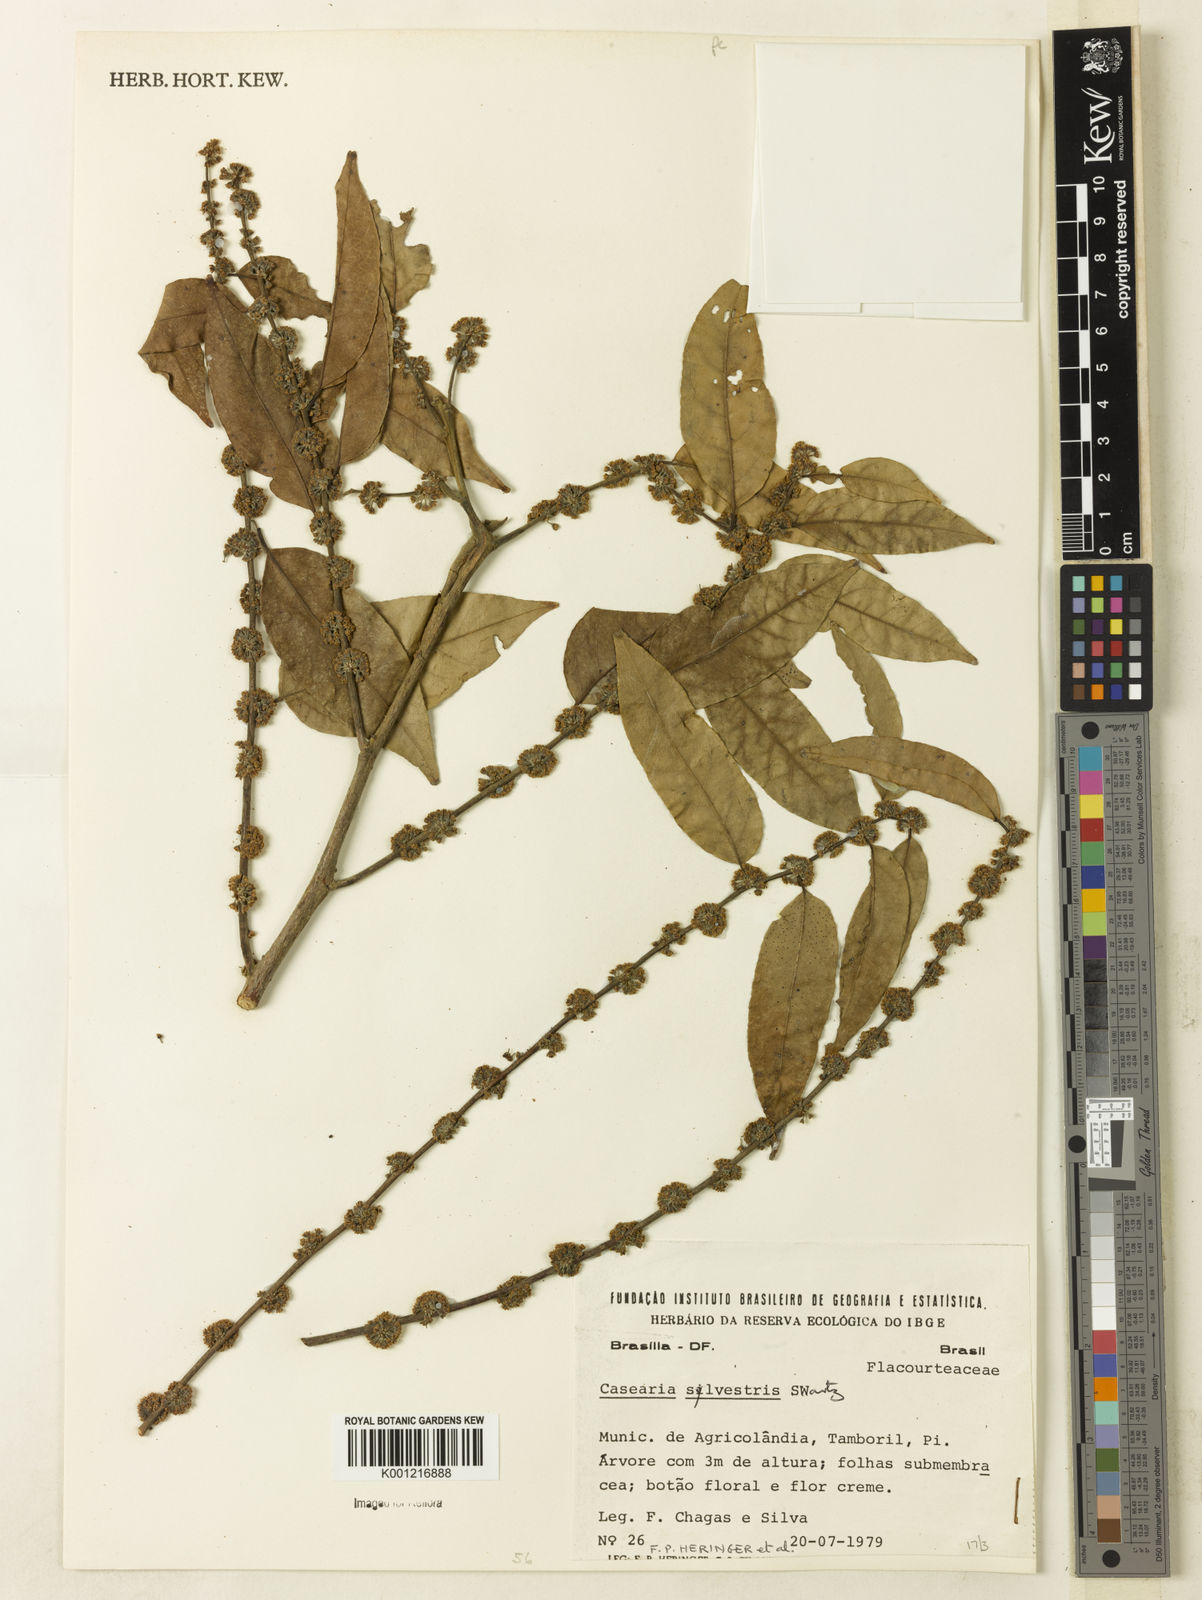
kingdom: Plantae
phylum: Tracheophyta
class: Magnoliopsida
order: Malpighiales
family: Salicaceae
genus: Casearia
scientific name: Casearia sylvestris
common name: Wild sage
